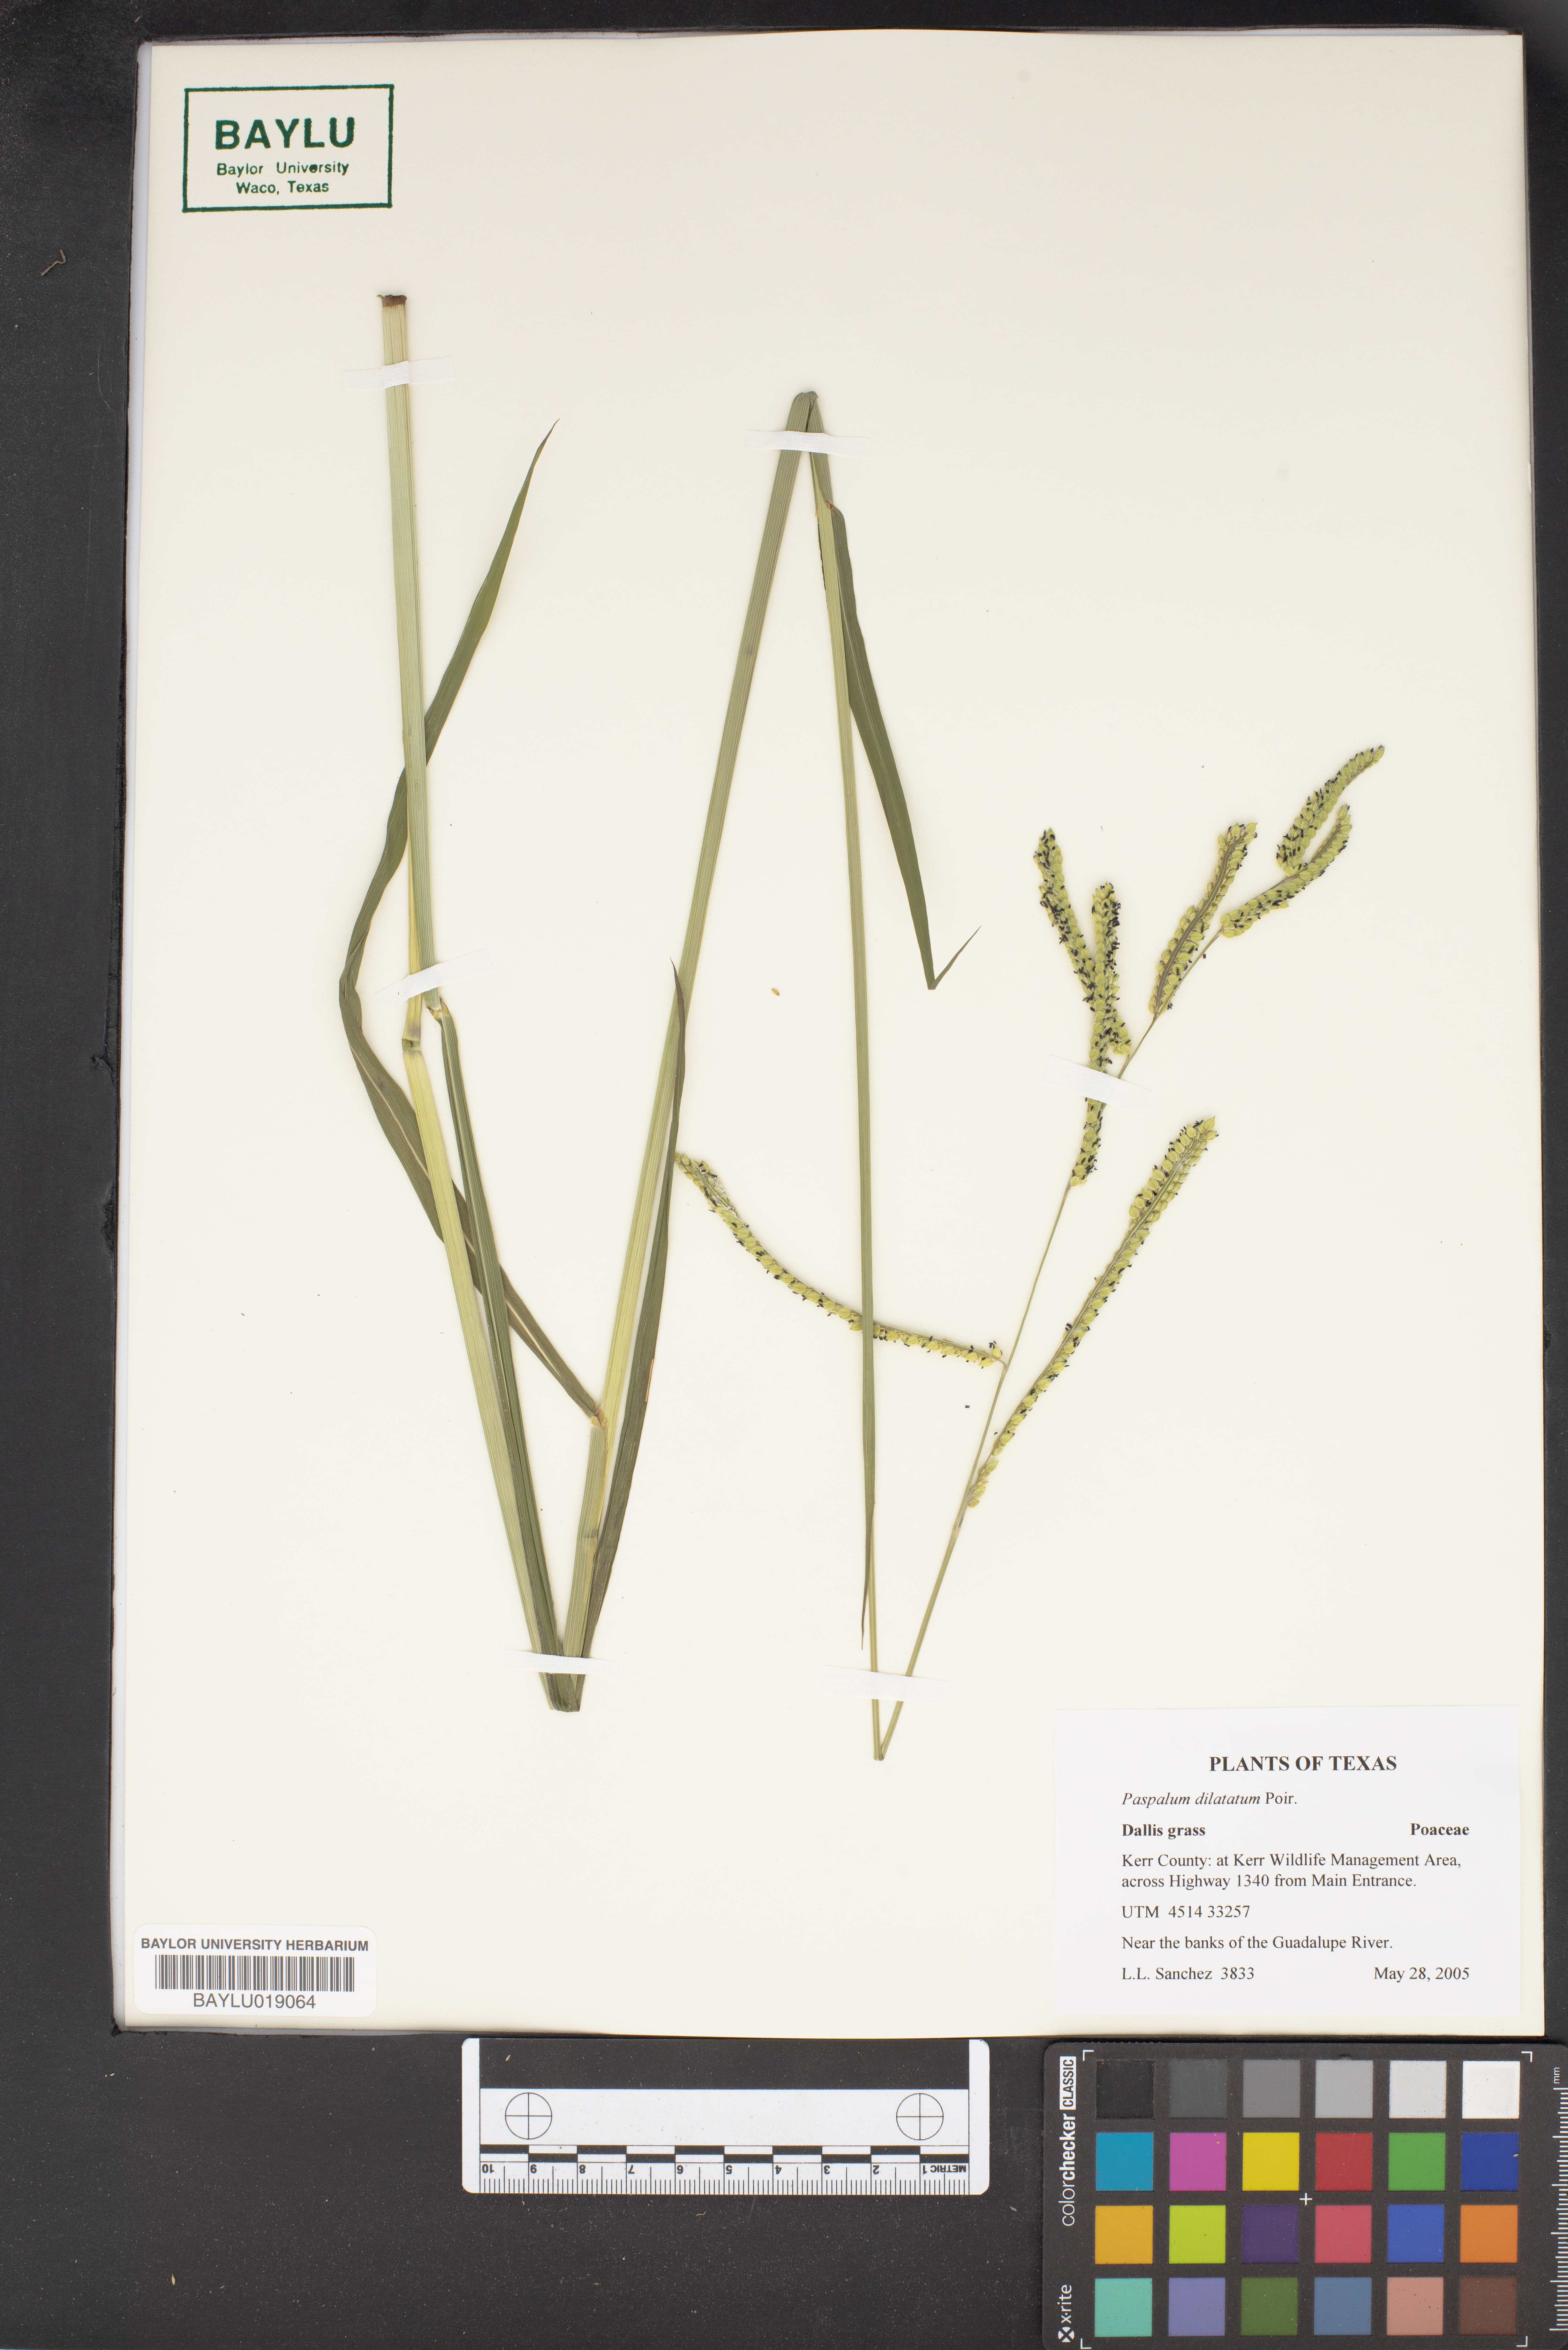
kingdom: Plantae
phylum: Tracheophyta
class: Liliopsida
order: Poales
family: Poaceae
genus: Paspalum
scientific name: Paspalum dilatatum
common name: Dallisgrass
